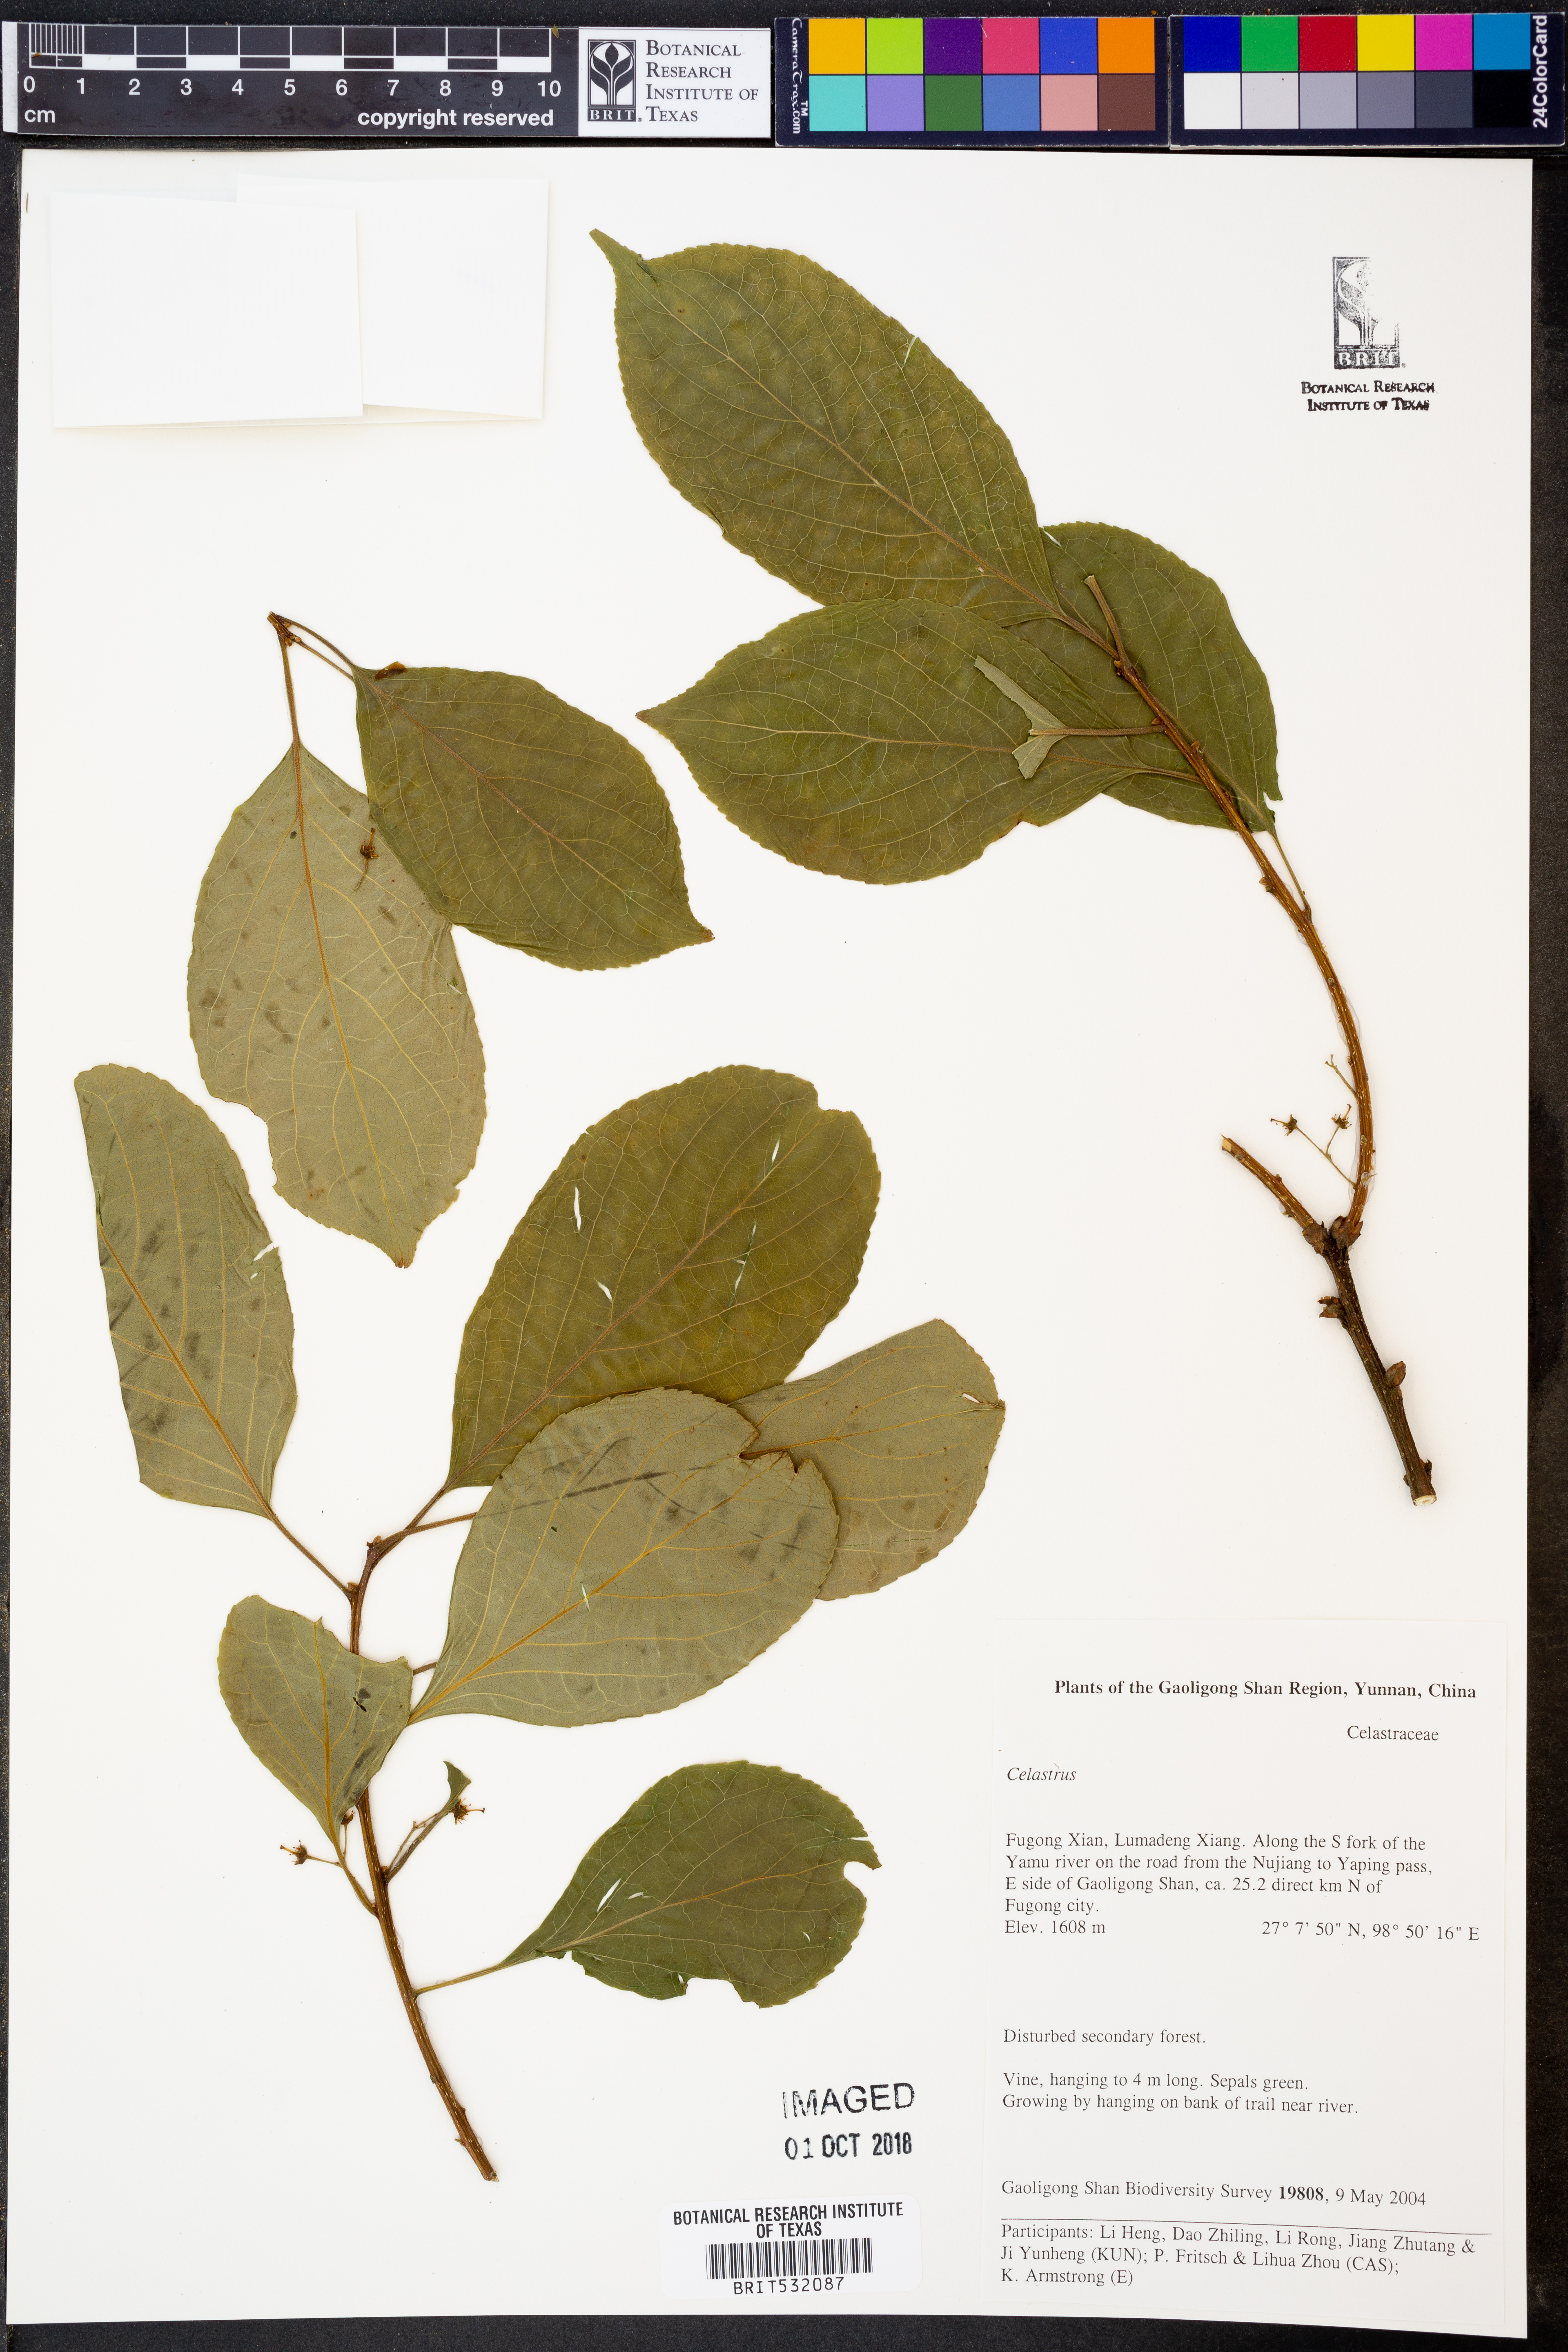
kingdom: Plantae
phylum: Tracheophyta
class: Magnoliopsida
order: Celastrales
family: Celastraceae
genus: Celastrus
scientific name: Celastrus
